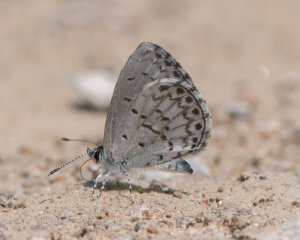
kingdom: Animalia
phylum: Arthropoda
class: Insecta
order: Lepidoptera
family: Lycaenidae
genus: Cyaniris
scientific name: Cyaniris neglecta
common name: Summer Azure
